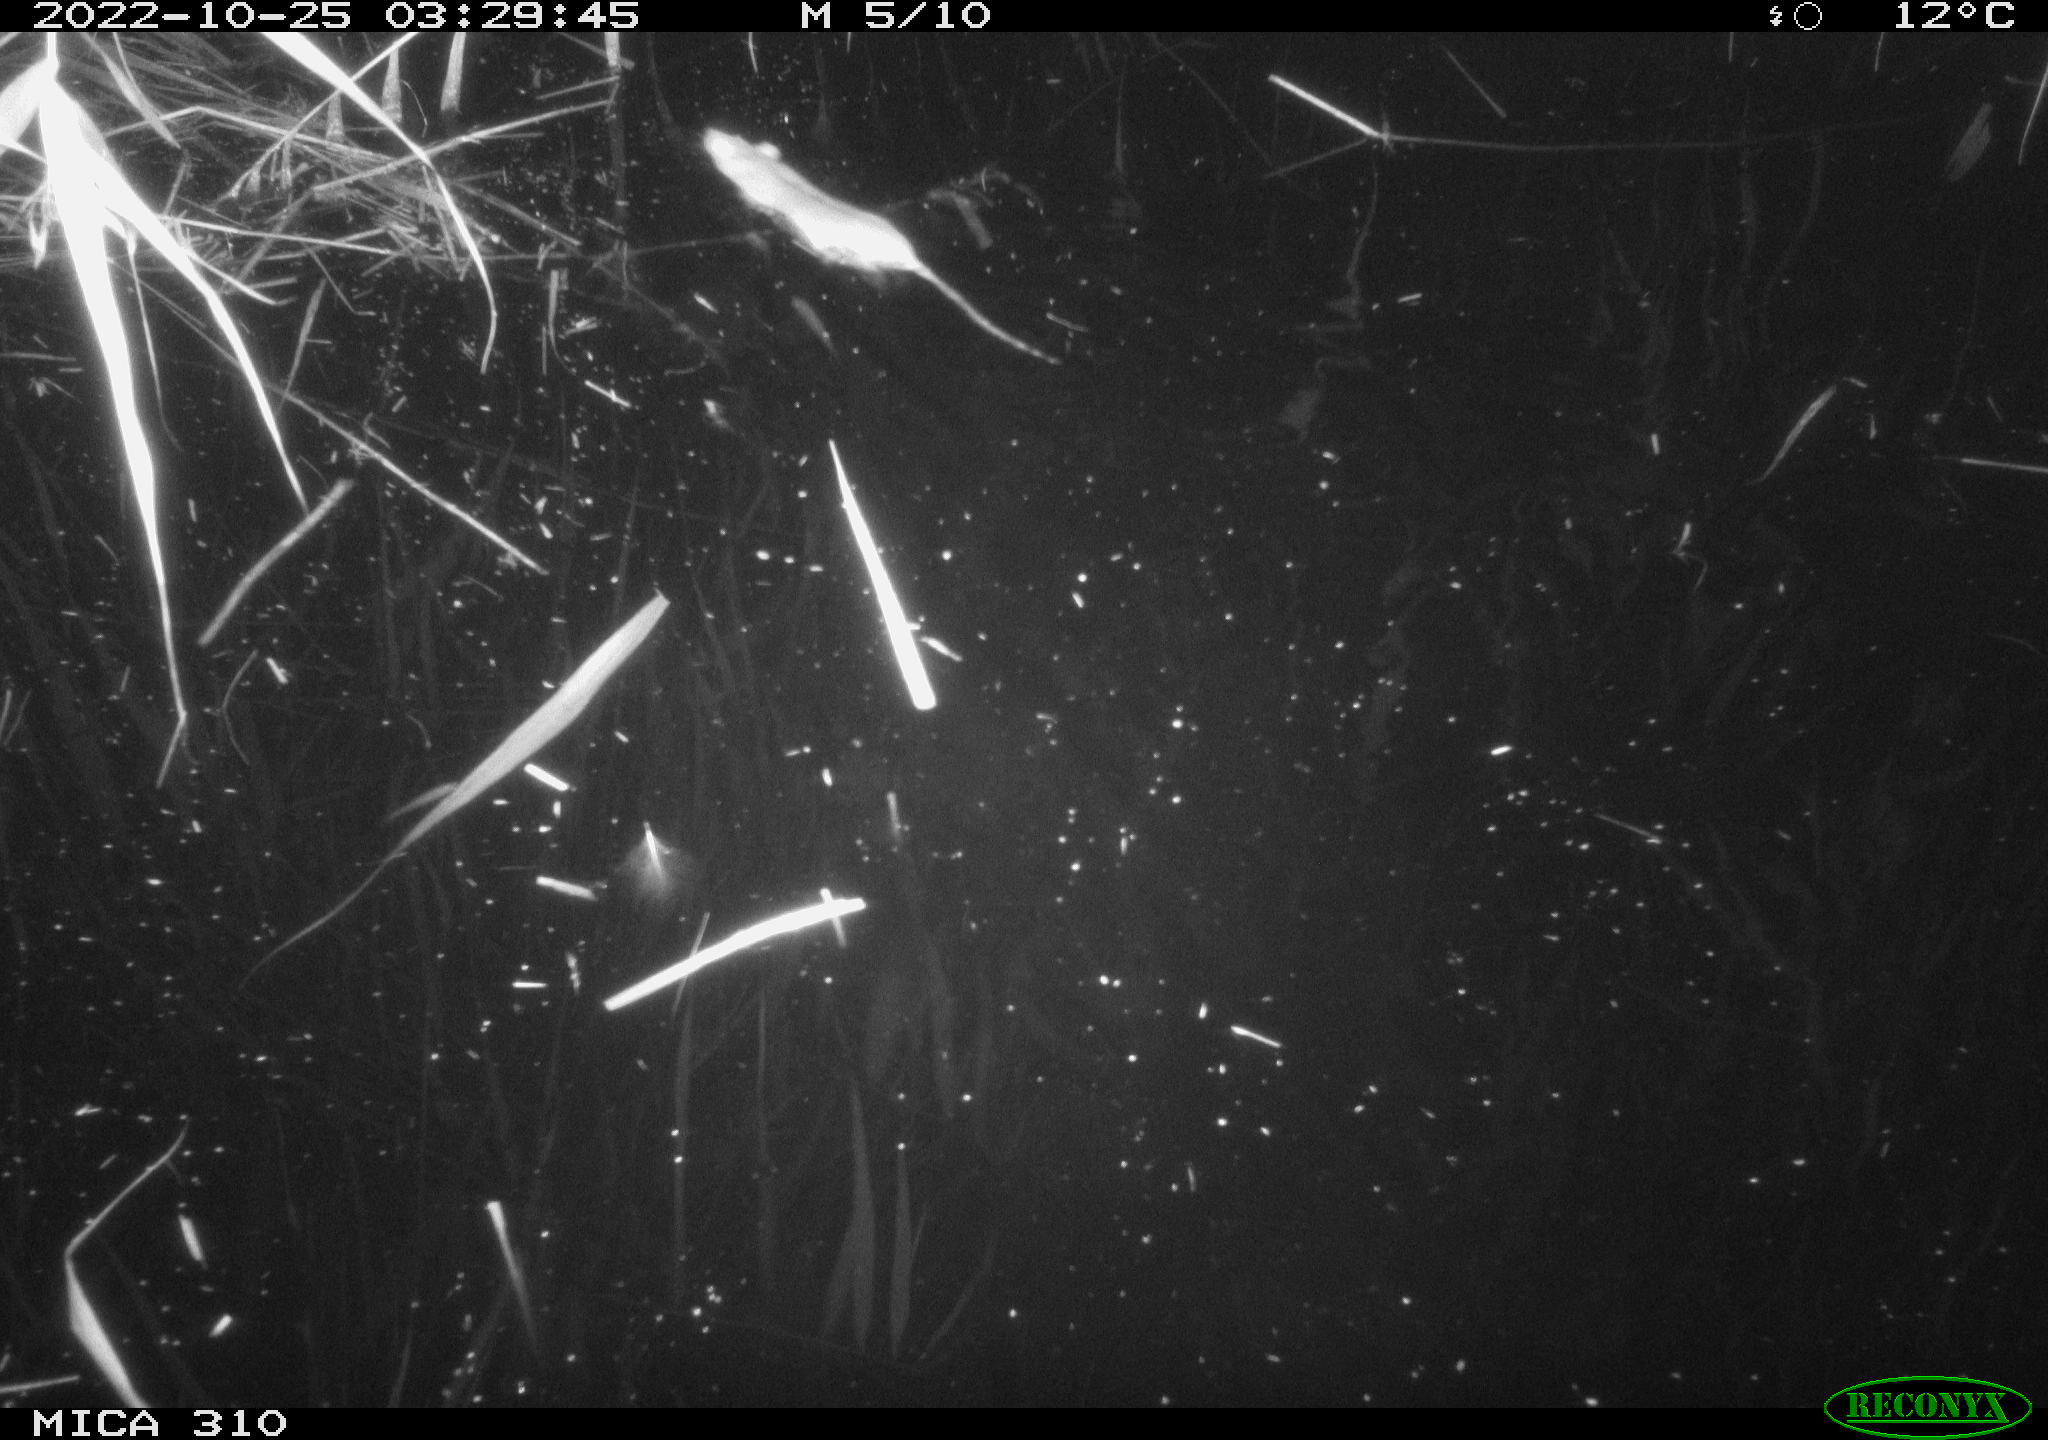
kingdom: Animalia
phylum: Chordata
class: Mammalia
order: Rodentia
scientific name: Rodentia
